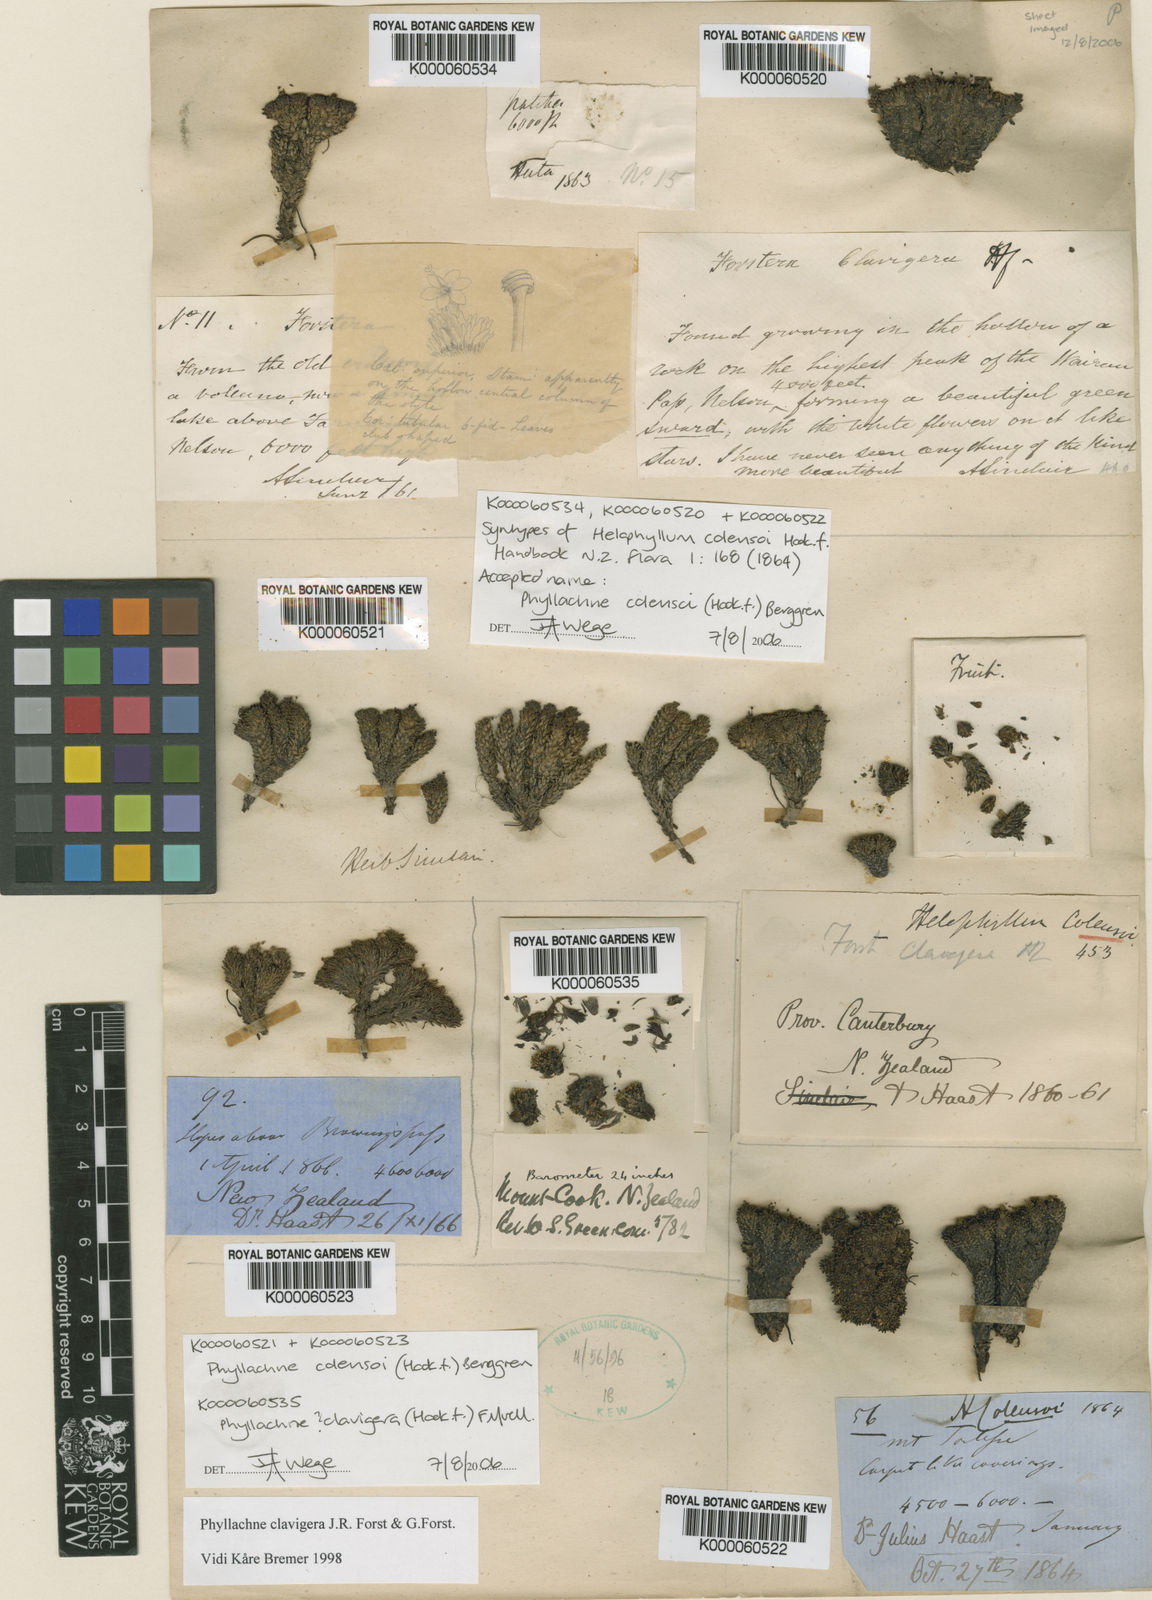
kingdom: Plantae
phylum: Tracheophyta
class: Magnoliopsida
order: Asterales
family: Stylidiaceae
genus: Phyllachne
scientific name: Phyllachne colensoi
